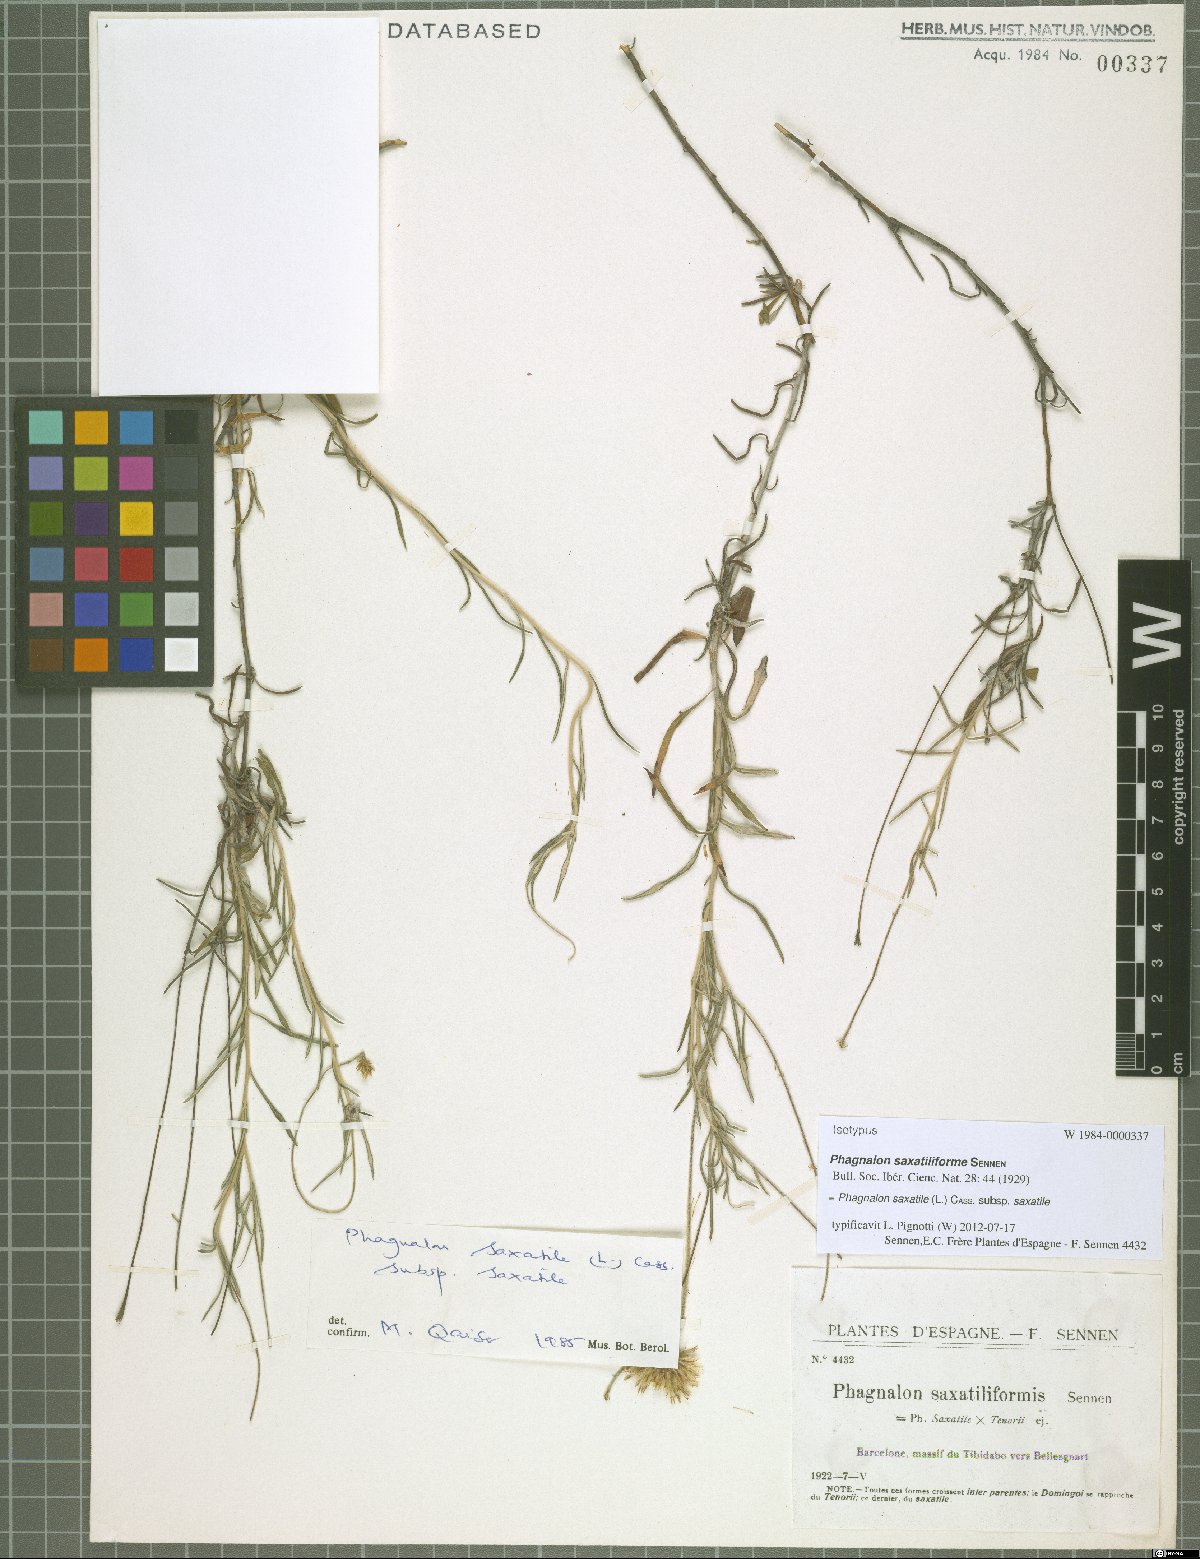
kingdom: Plantae
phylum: Tracheophyta
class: Magnoliopsida
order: Asterales
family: Asteraceae
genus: Phagnalon
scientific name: Phagnalon saxatile
